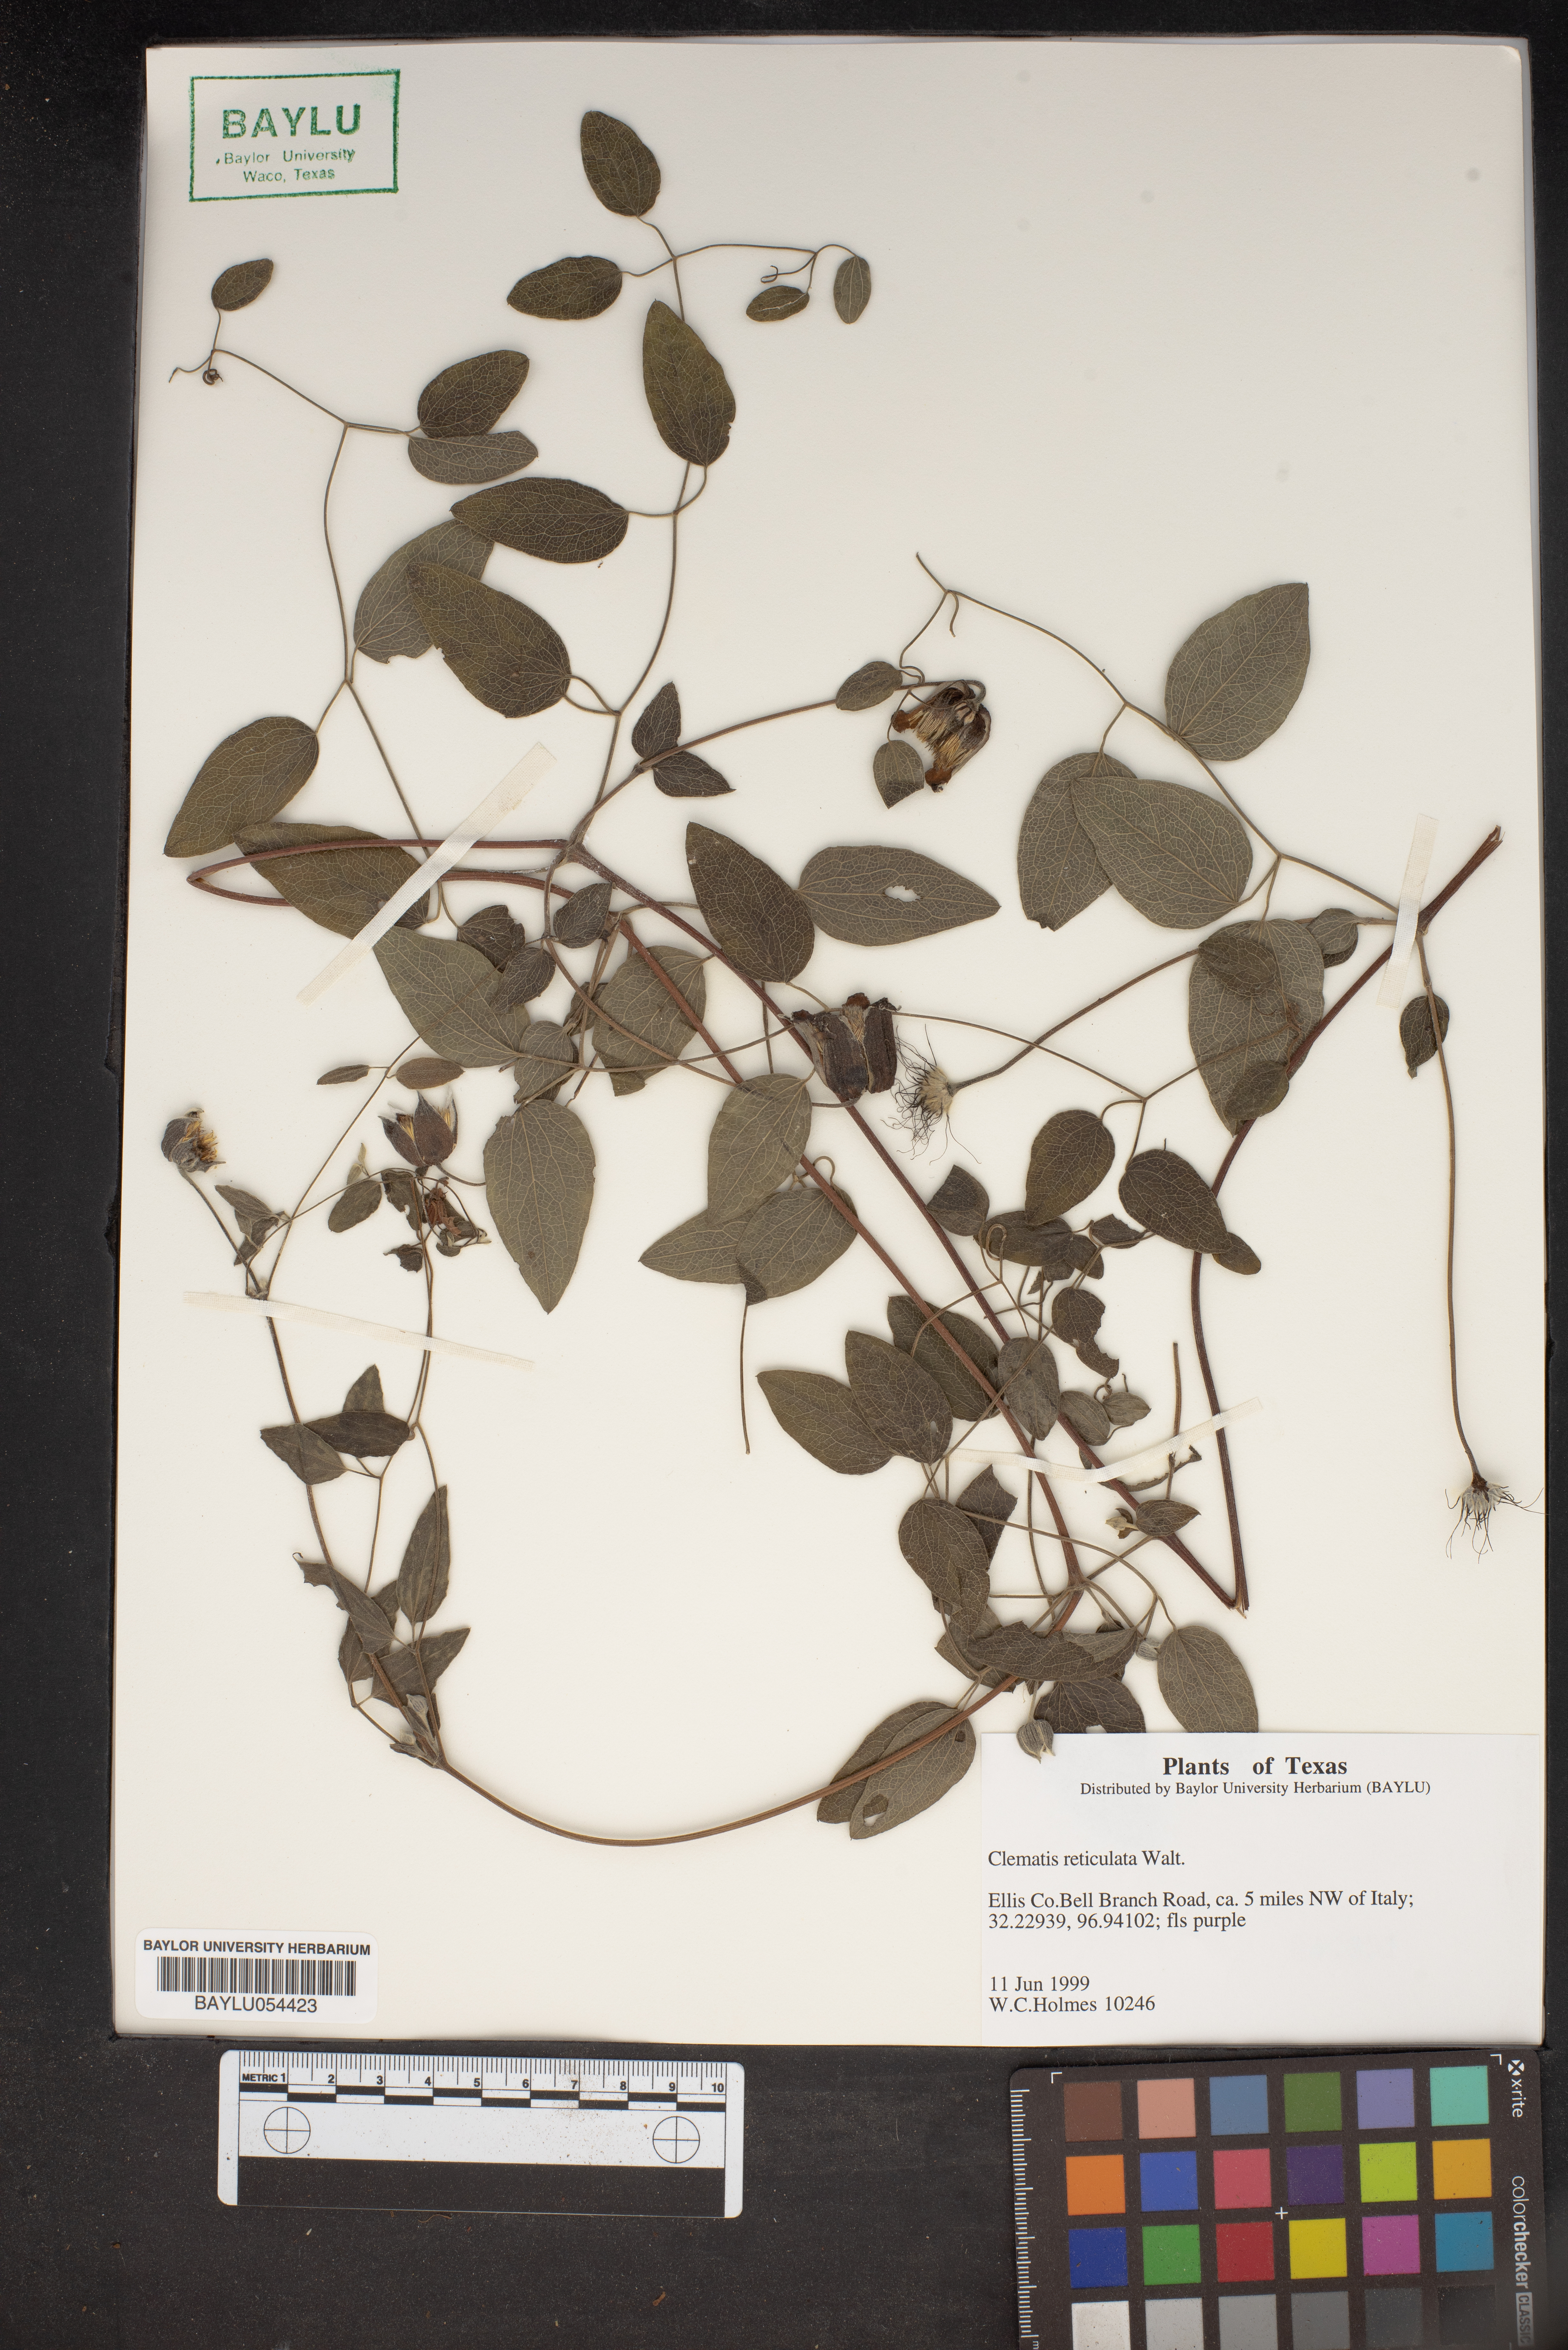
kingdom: Plantae
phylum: Tracheophyta
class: Magnoliopsida
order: Ranunculales
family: Ranunculaceae
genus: Clematis
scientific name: Clematis reticulata
